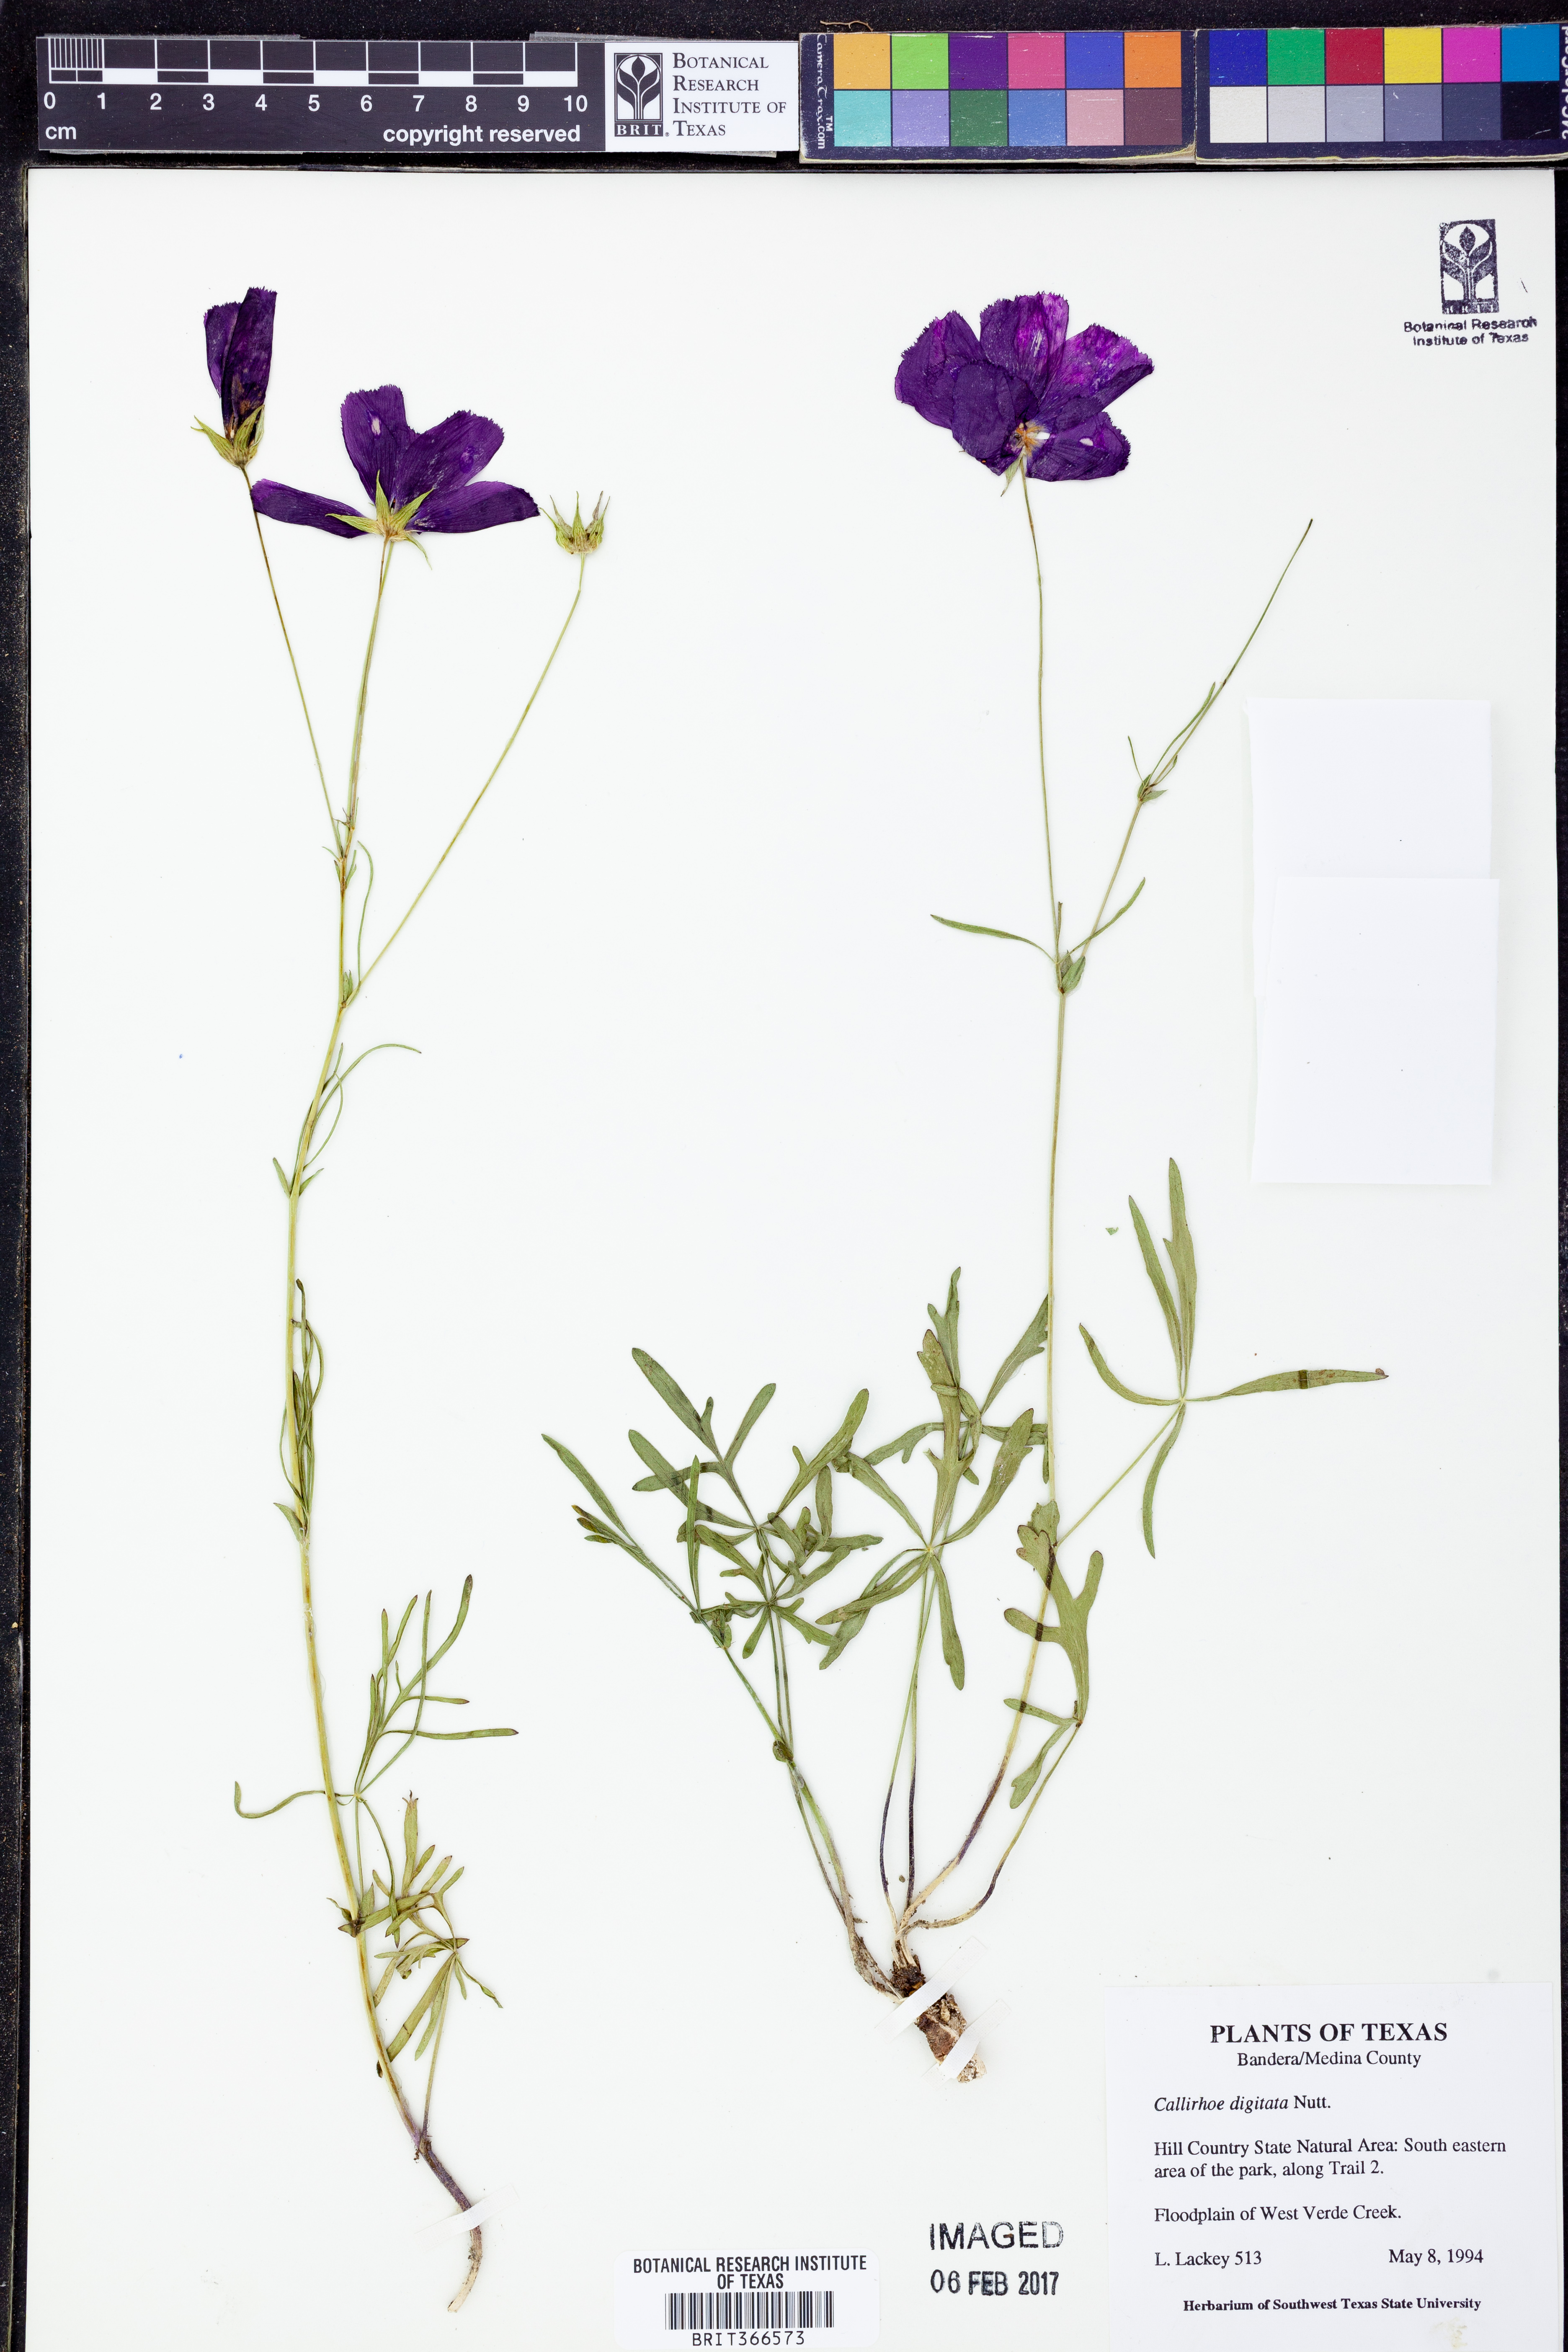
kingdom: Plantae
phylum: Tracheophyta
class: Magnoliopsida
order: Malvales
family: Malvaceae
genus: Callirhoe
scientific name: Callirhoe digitata
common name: Finger poppy-mallow
